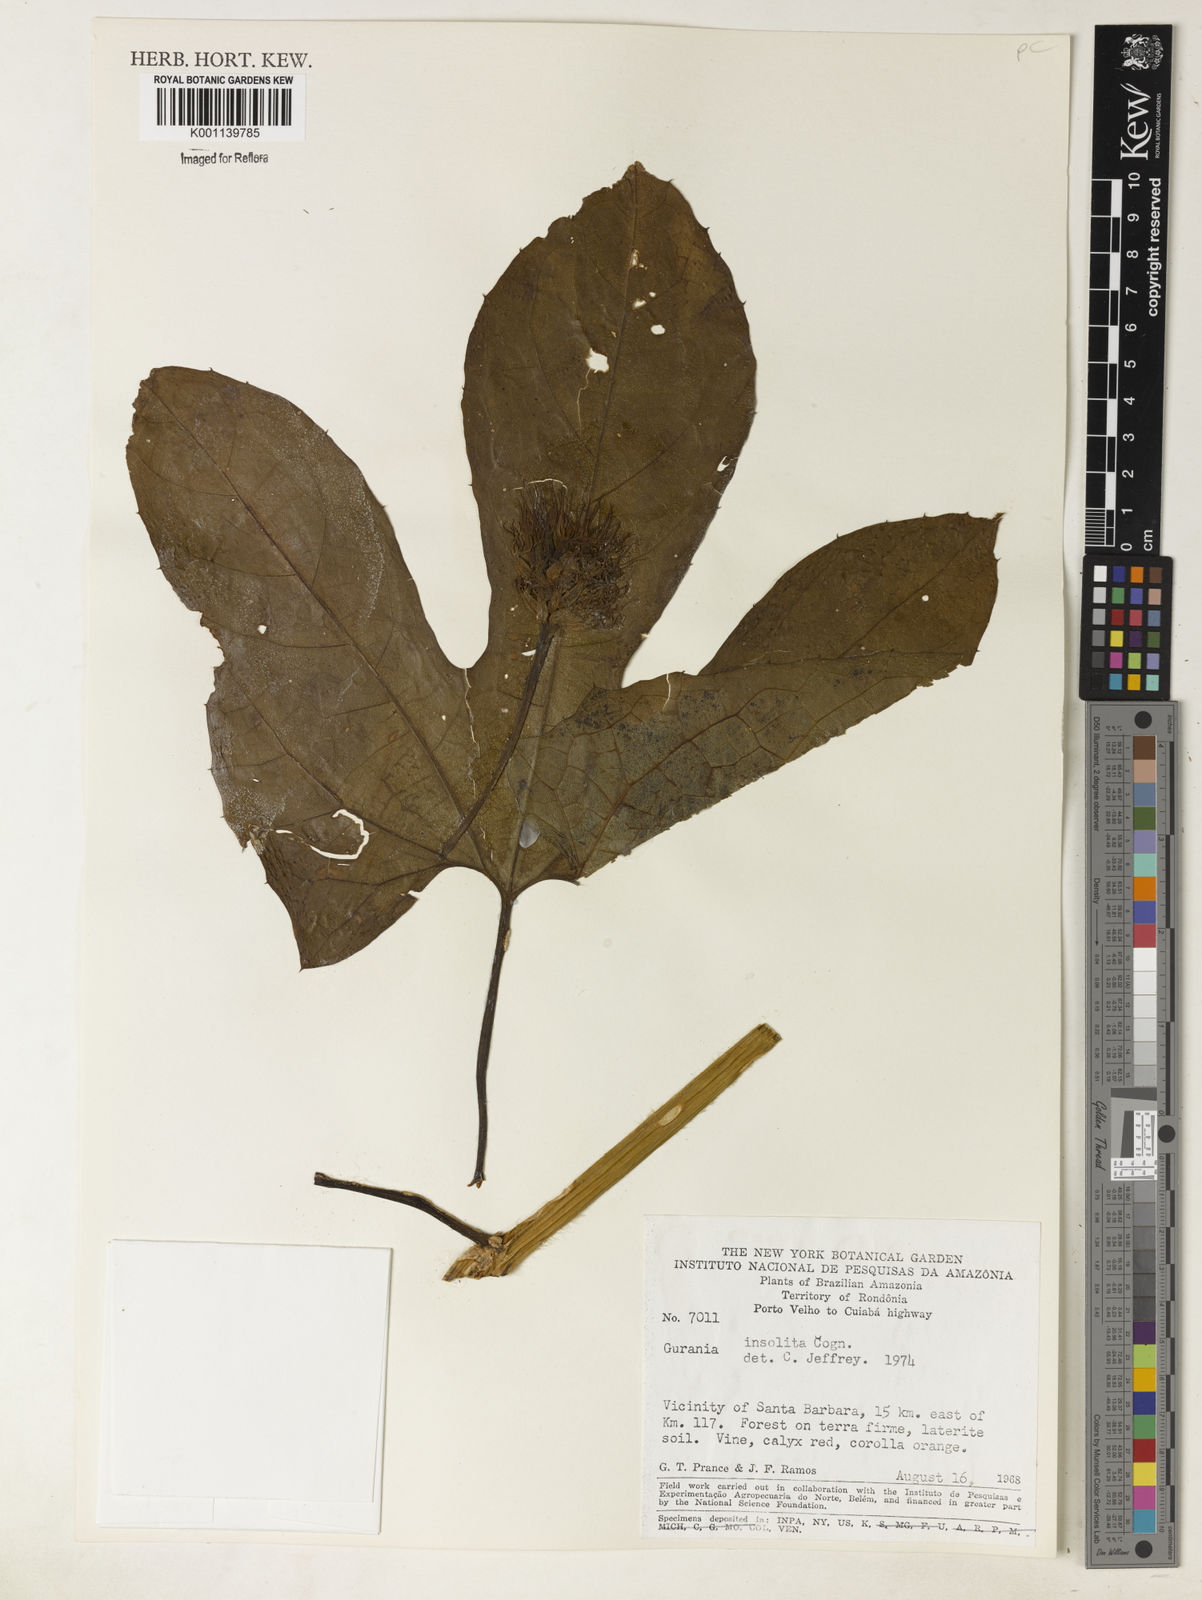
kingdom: Plantae
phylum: Tracheophyta
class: Magnoliopsida
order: Cucurbitales
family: Cucurbitaceae
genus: Gurania
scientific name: Gurania sinuata
